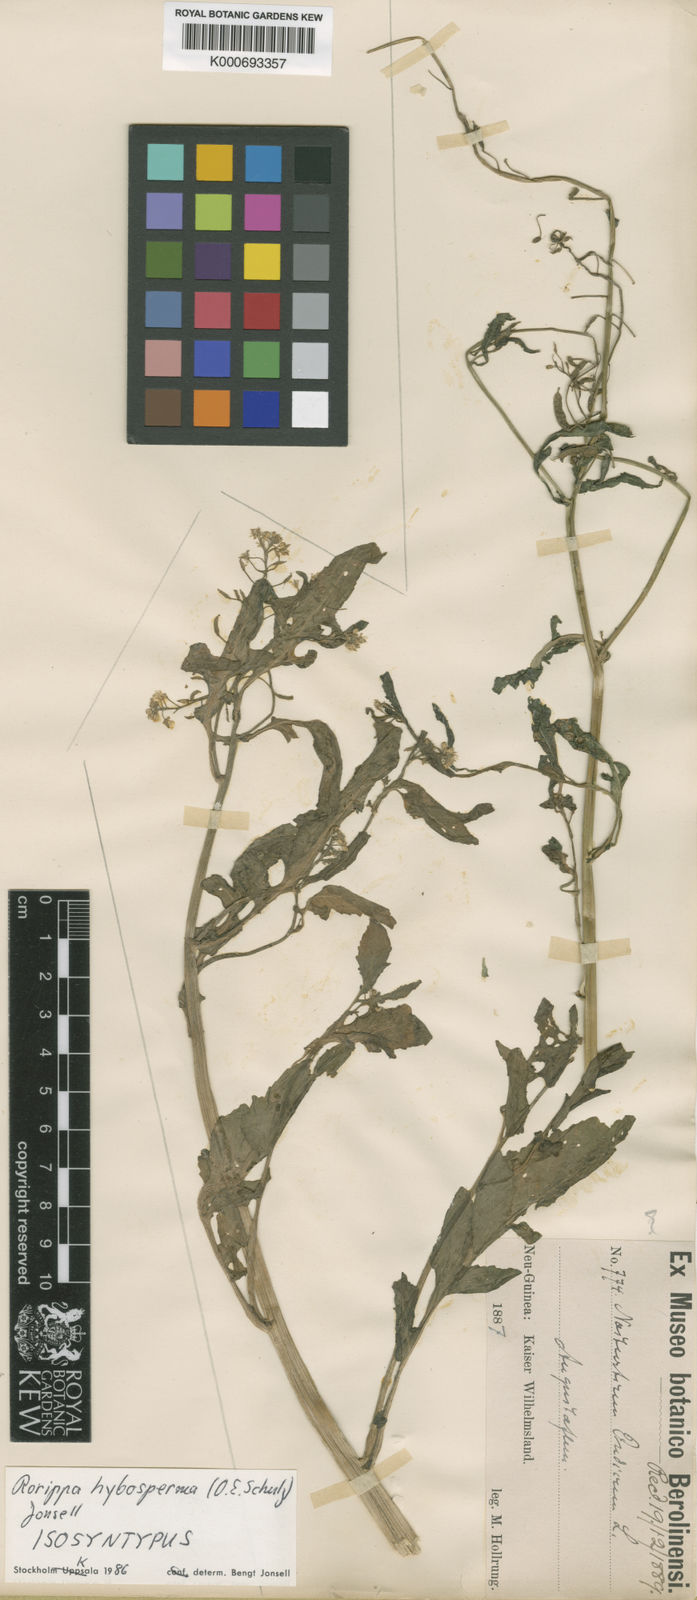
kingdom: Plantae
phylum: Tracheophyta
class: Magnoliopsida
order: Brassicales
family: Brassicaceae
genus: Rorippa
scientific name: Rorippa hybosperma
